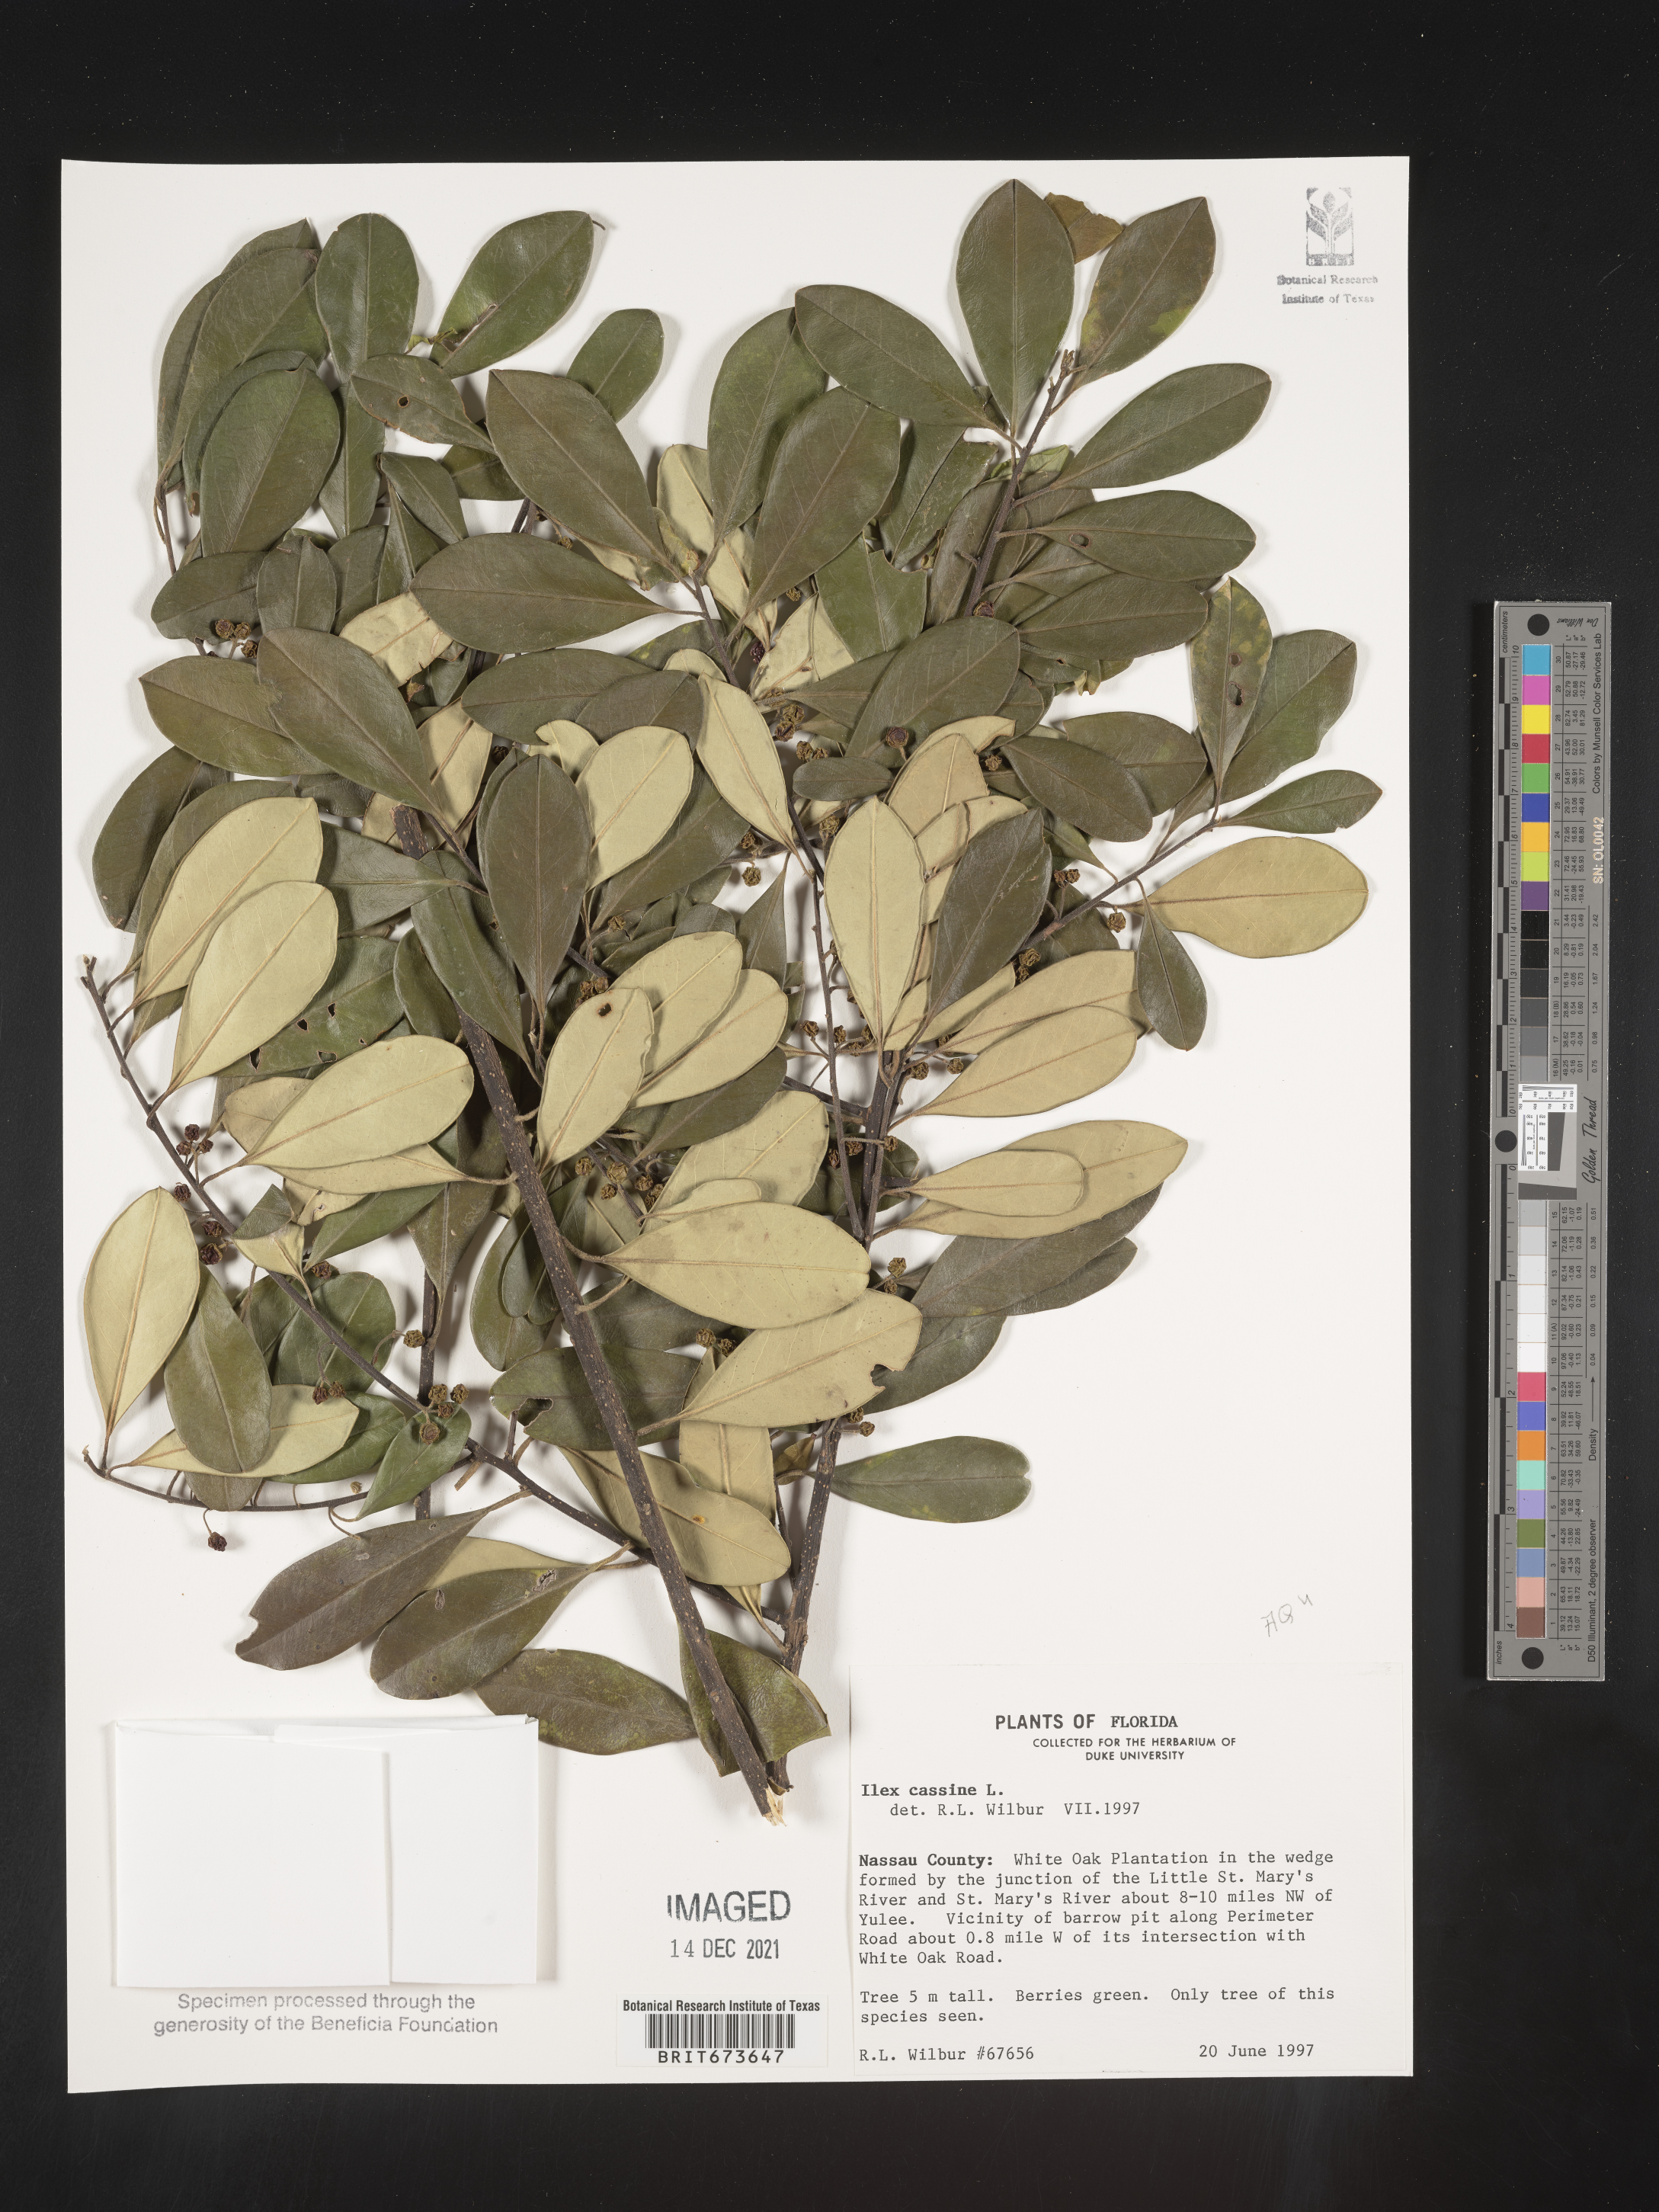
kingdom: Plantae
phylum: Tracheophyta
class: Magnoliopsida
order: Aquifoliales
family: Aquifoliaceae
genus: Ilex
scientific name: Ilex cassine
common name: Dahoon
